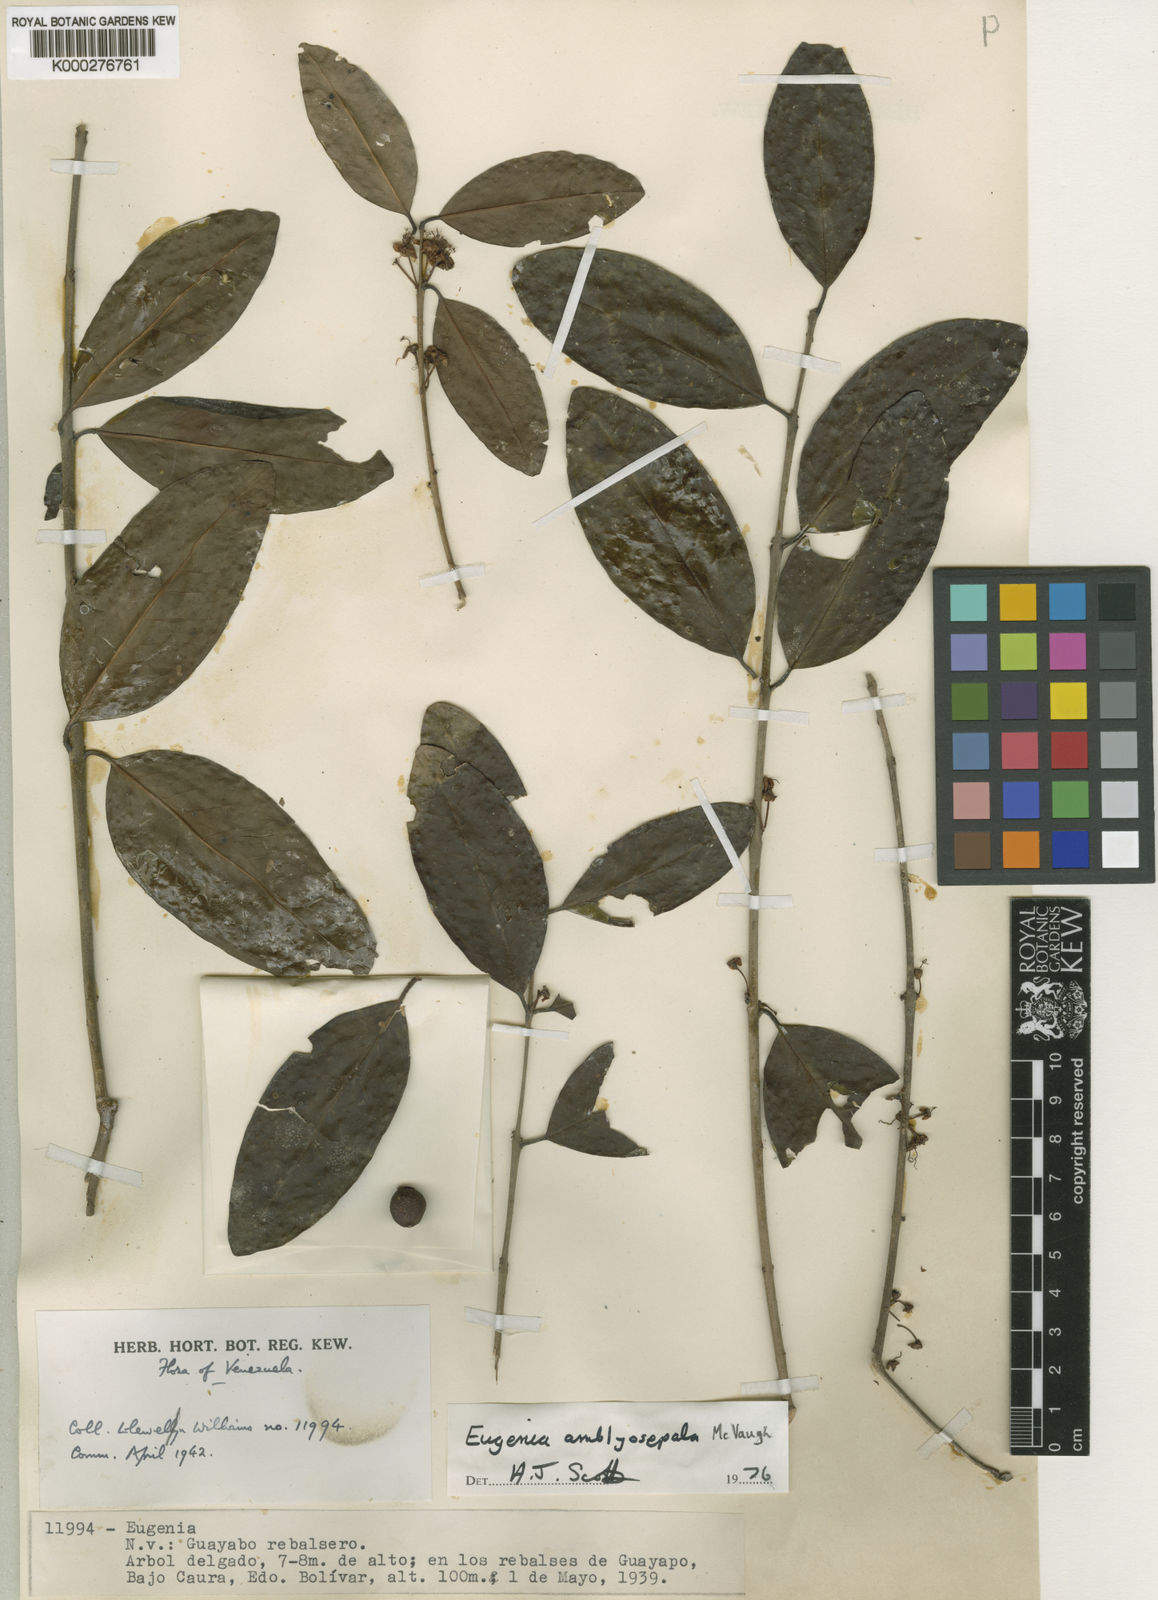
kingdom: Plantae
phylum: Tracheophyta
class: Magnoliopsida
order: Myrtales
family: Myrtaceae
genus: Eugenia
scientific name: Eugenia amblyosepala
